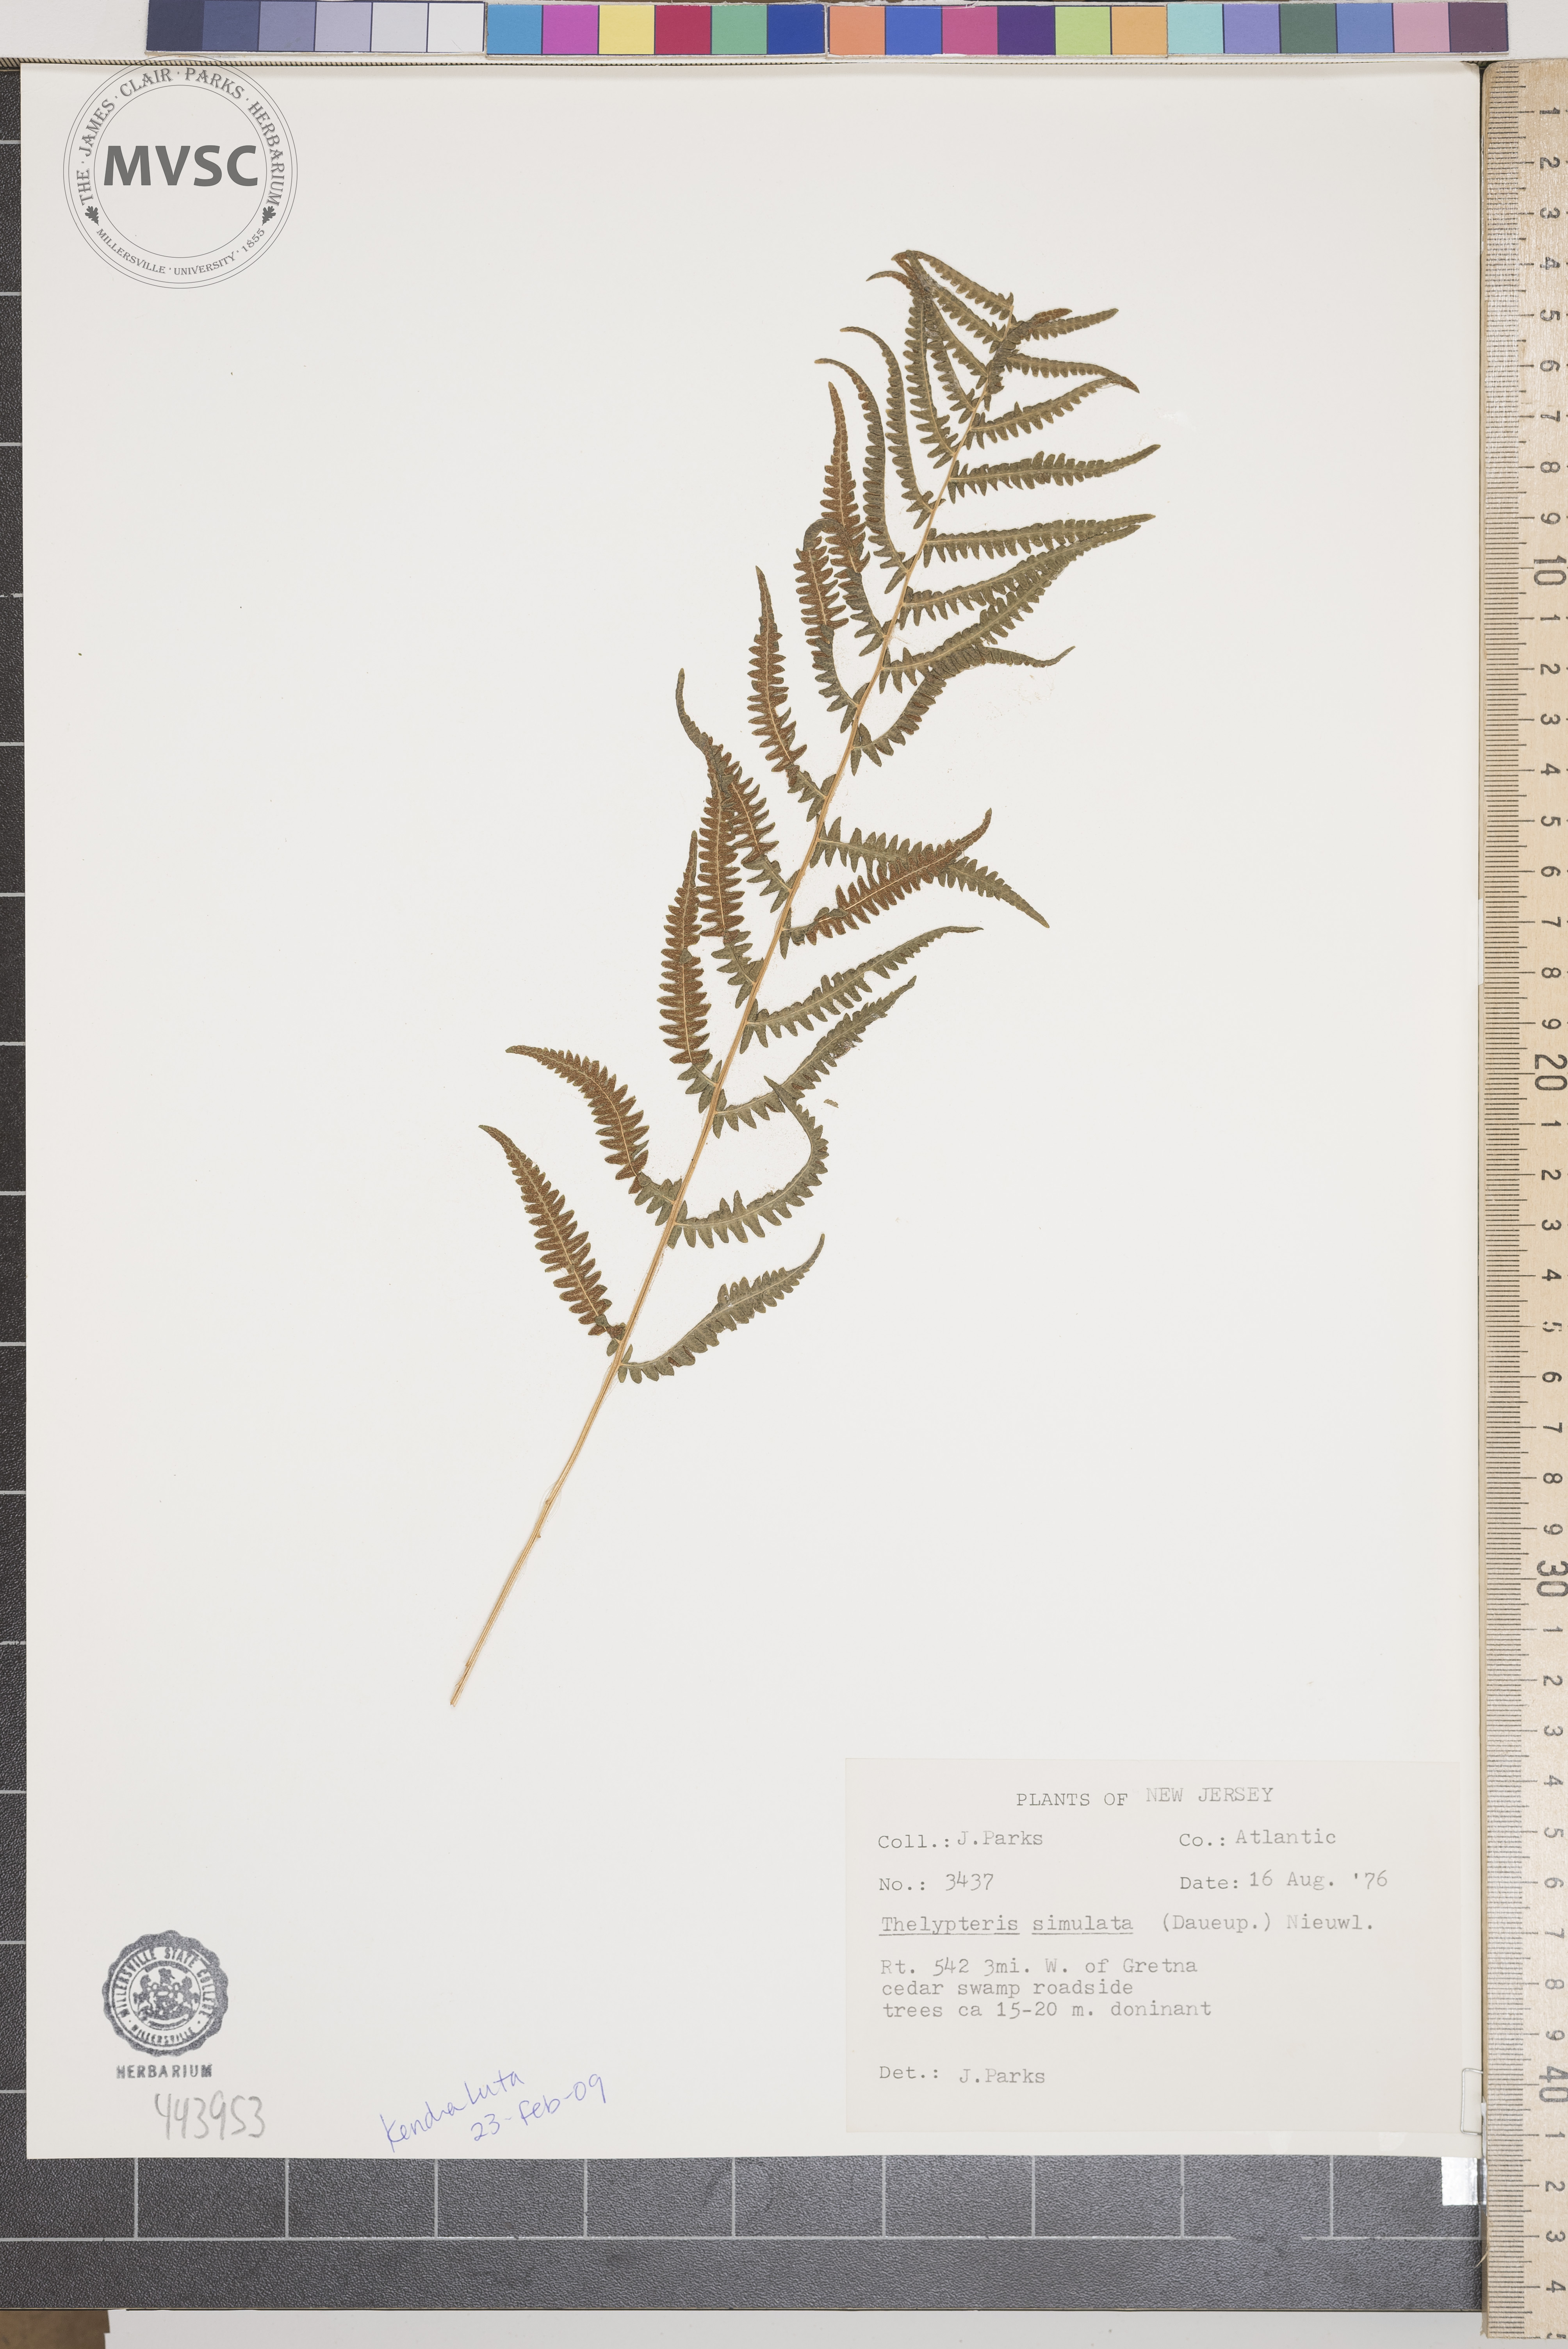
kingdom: Plantae
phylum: Tracheophyta
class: Polypodiopsida
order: Polypodiales
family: Thelypteridaceae
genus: Coryphopteris
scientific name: Coryphopteris simulata
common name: Bog fern
